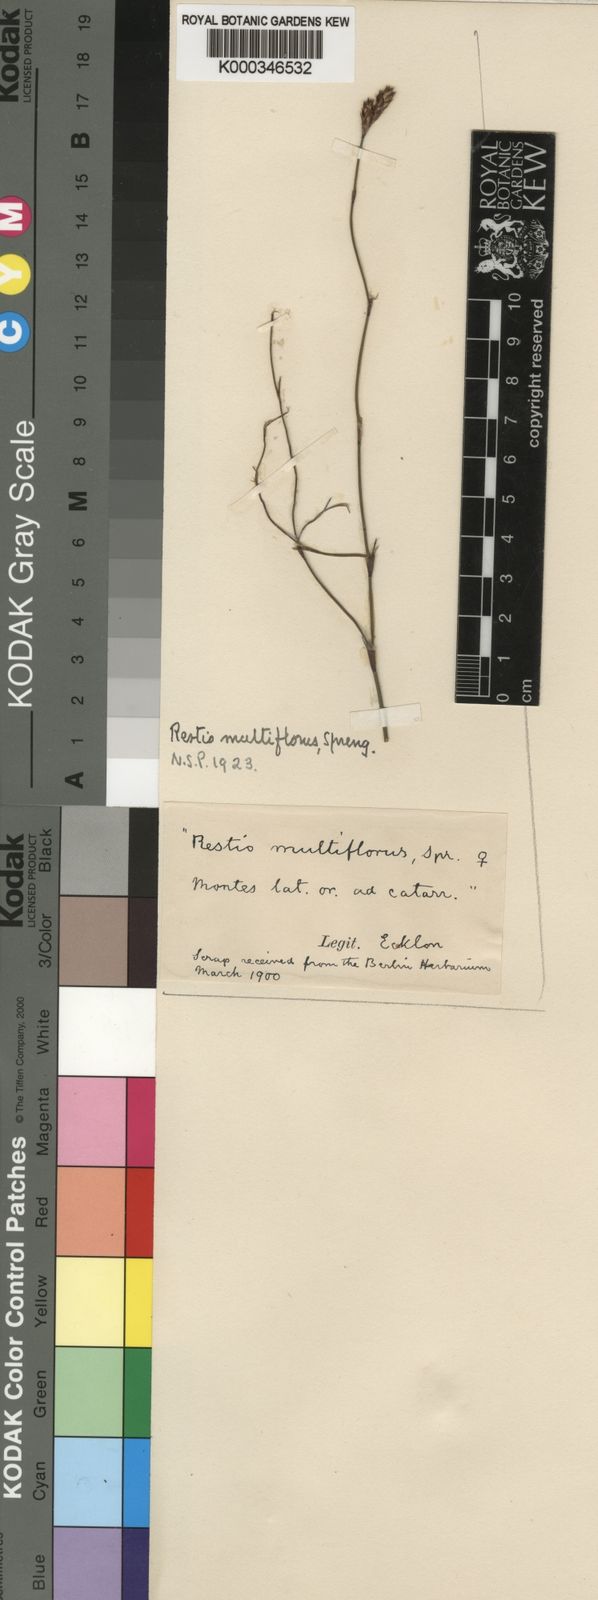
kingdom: Plantae
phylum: Tracheophyta
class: Liliopsida
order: Poales
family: Restionaceae
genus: Restio
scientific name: Restio multiflorus
